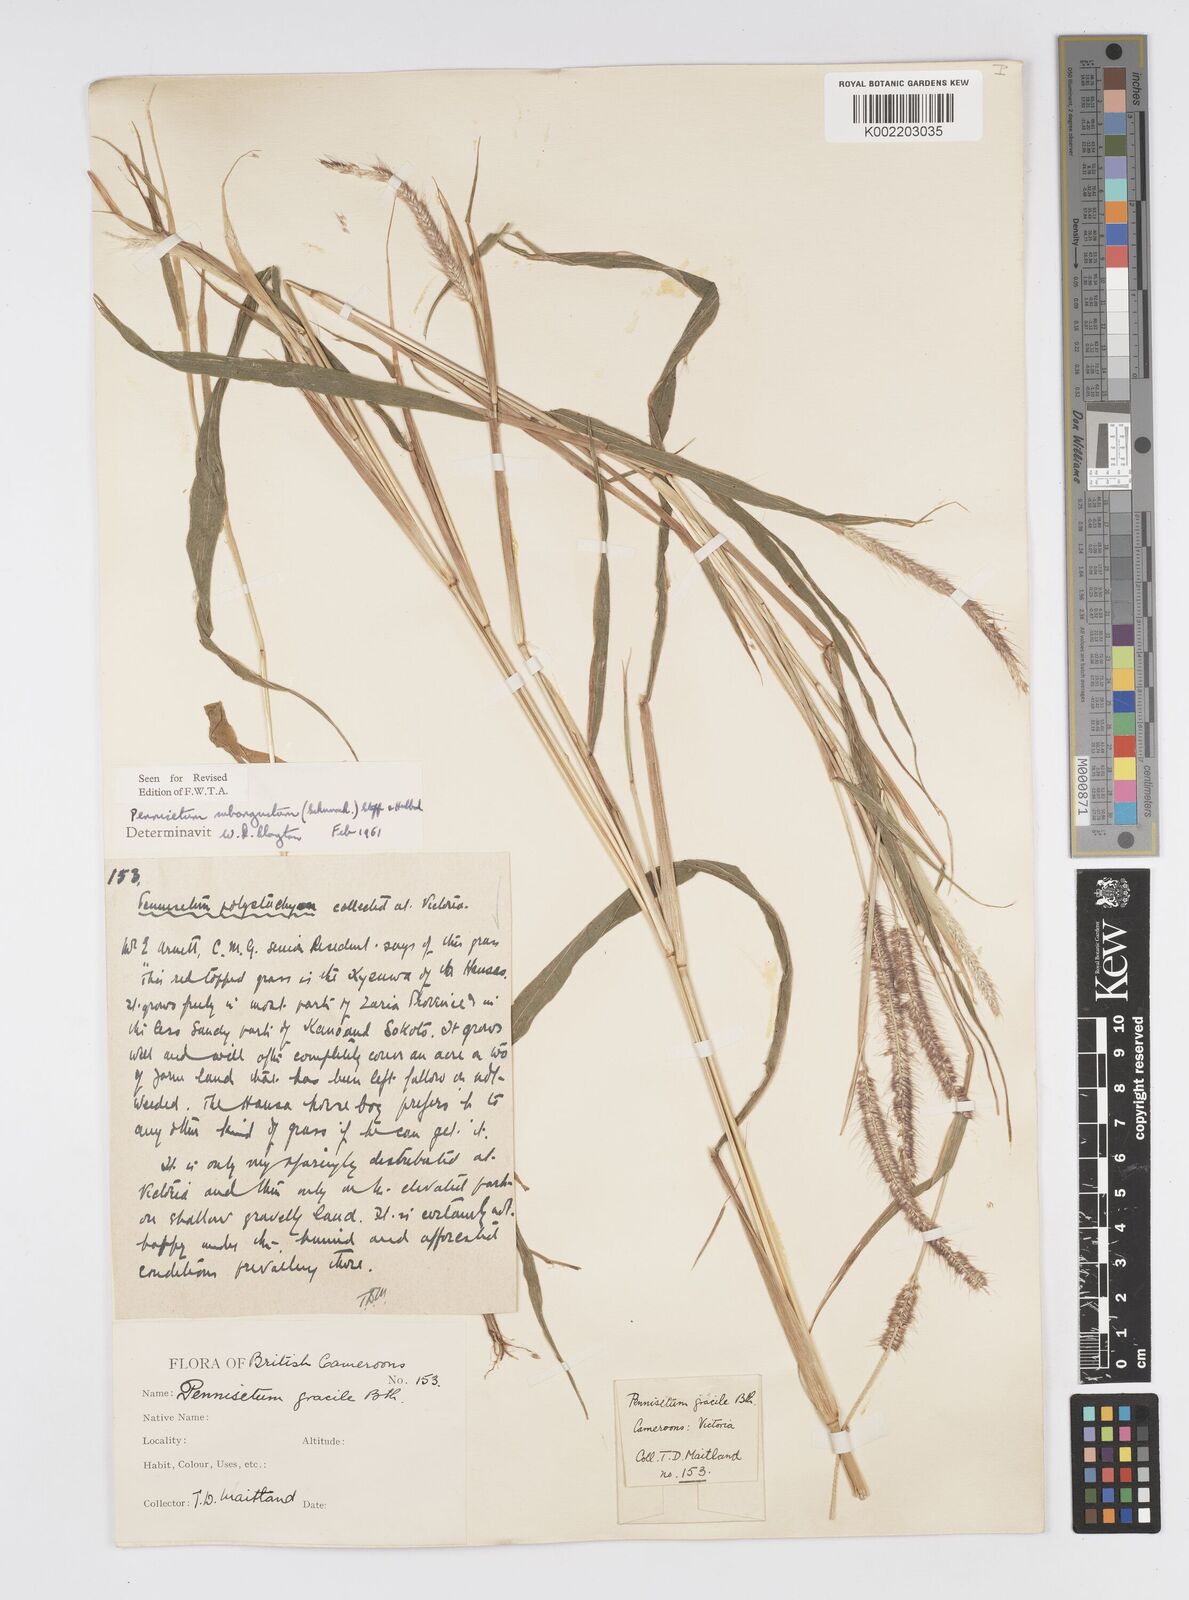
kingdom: Plantae
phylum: Tracheophyta
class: Liliopsida
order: Poales
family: Poaceae
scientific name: Poaceae
